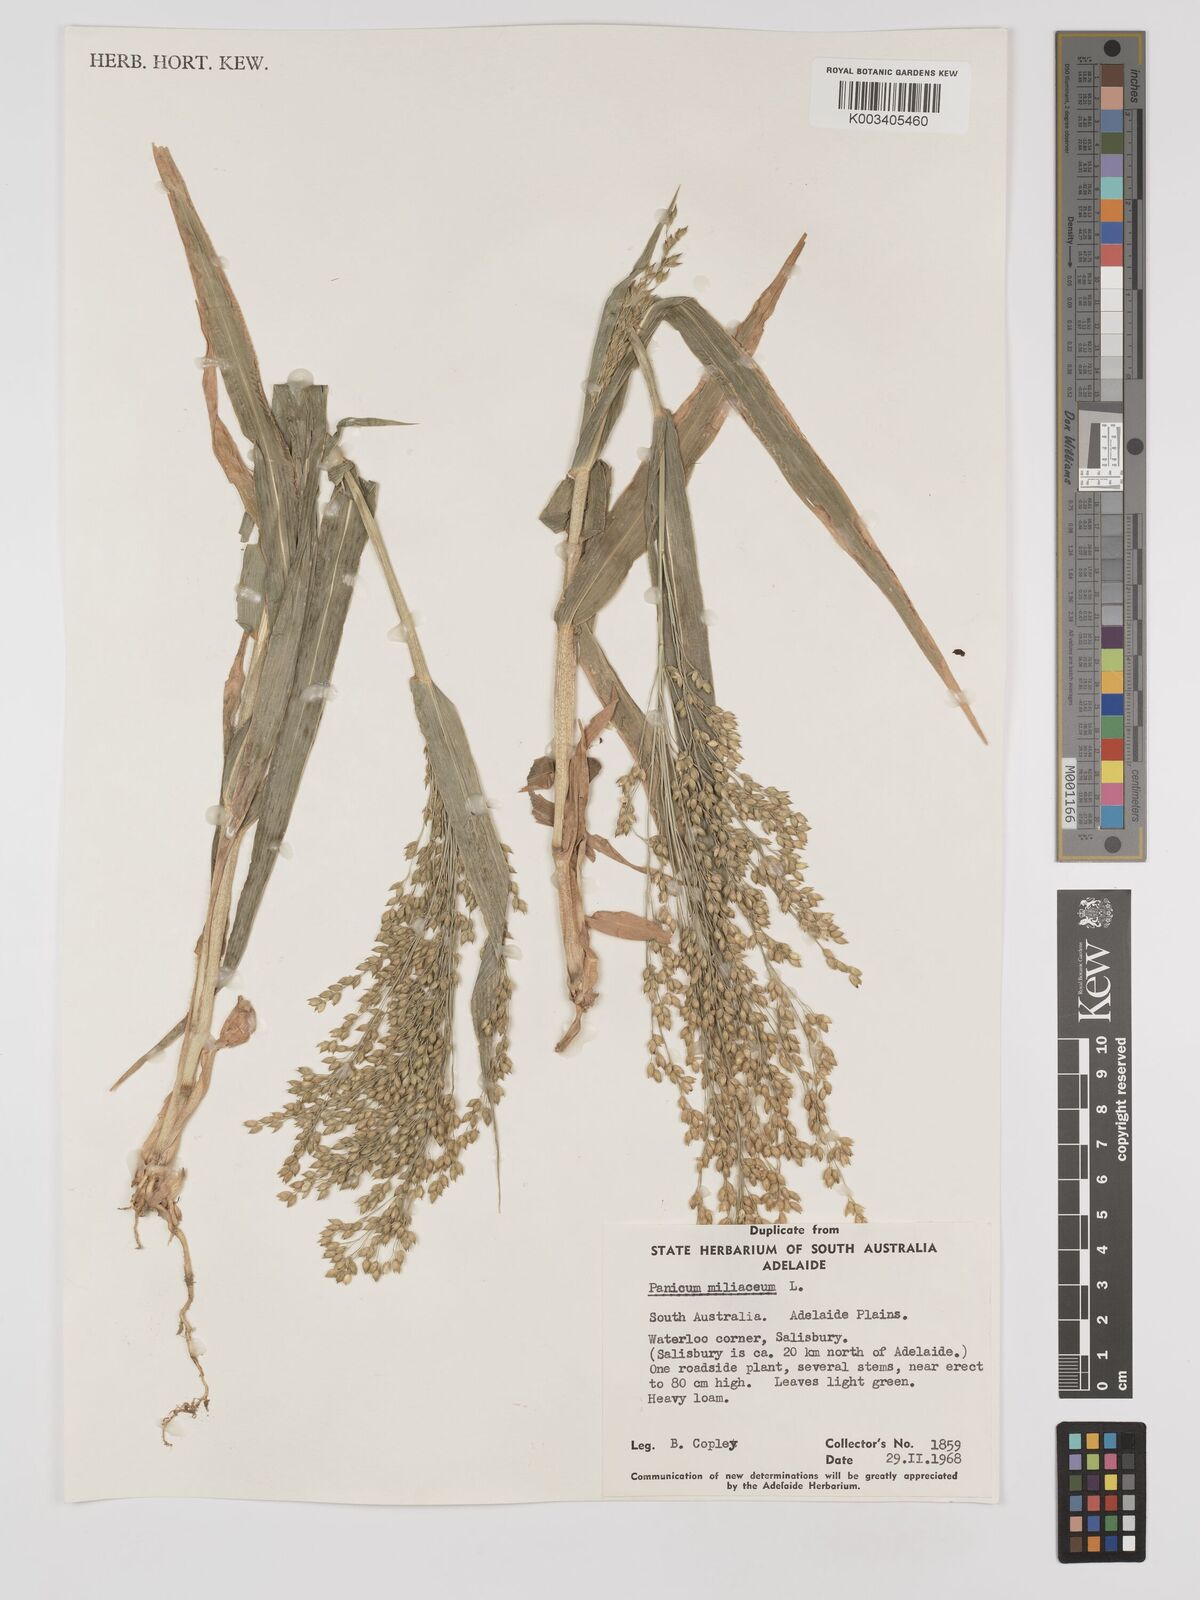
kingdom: Plantae
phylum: Tracheophyta
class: Liliopsida
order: Poales
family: Poaceae
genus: Panicum
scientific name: Panicum miliaceum
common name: Common millet
